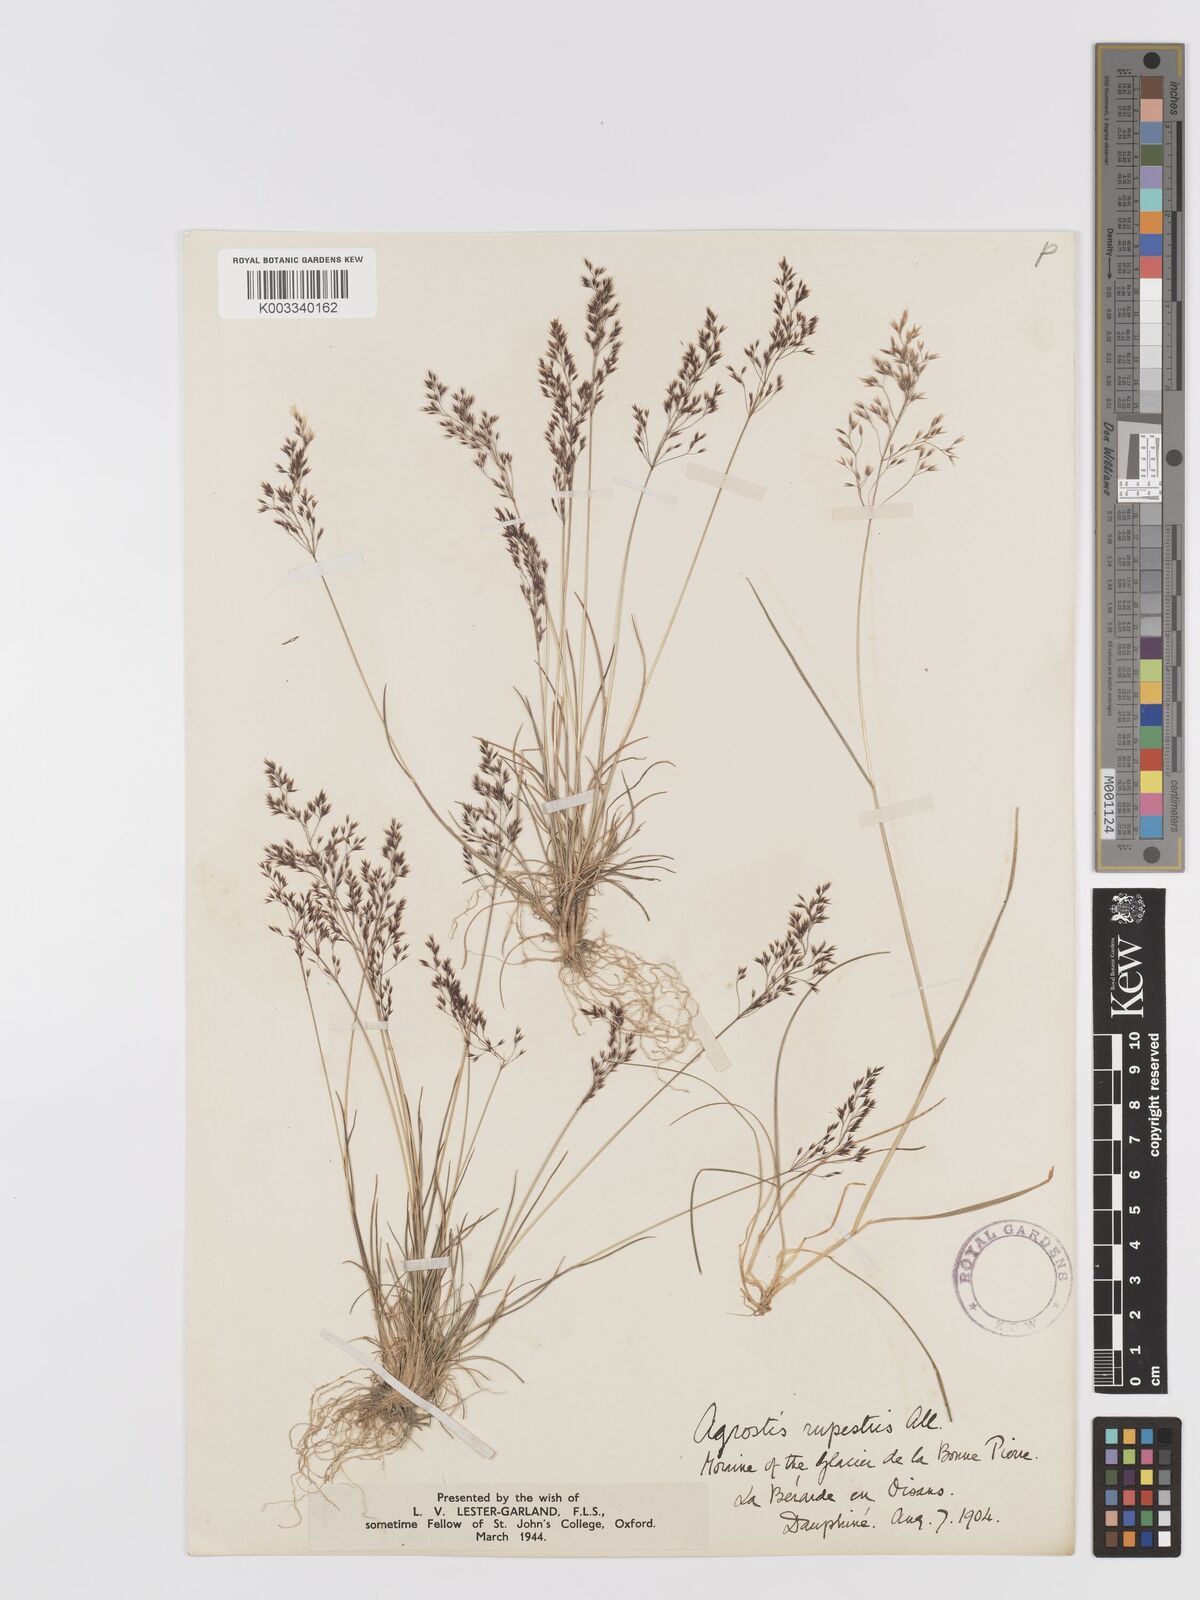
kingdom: Plantae
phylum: Tracheophyta
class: Liliopsida
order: Poales
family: Poaceae
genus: Agrostis
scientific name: Agrostis rupestris
